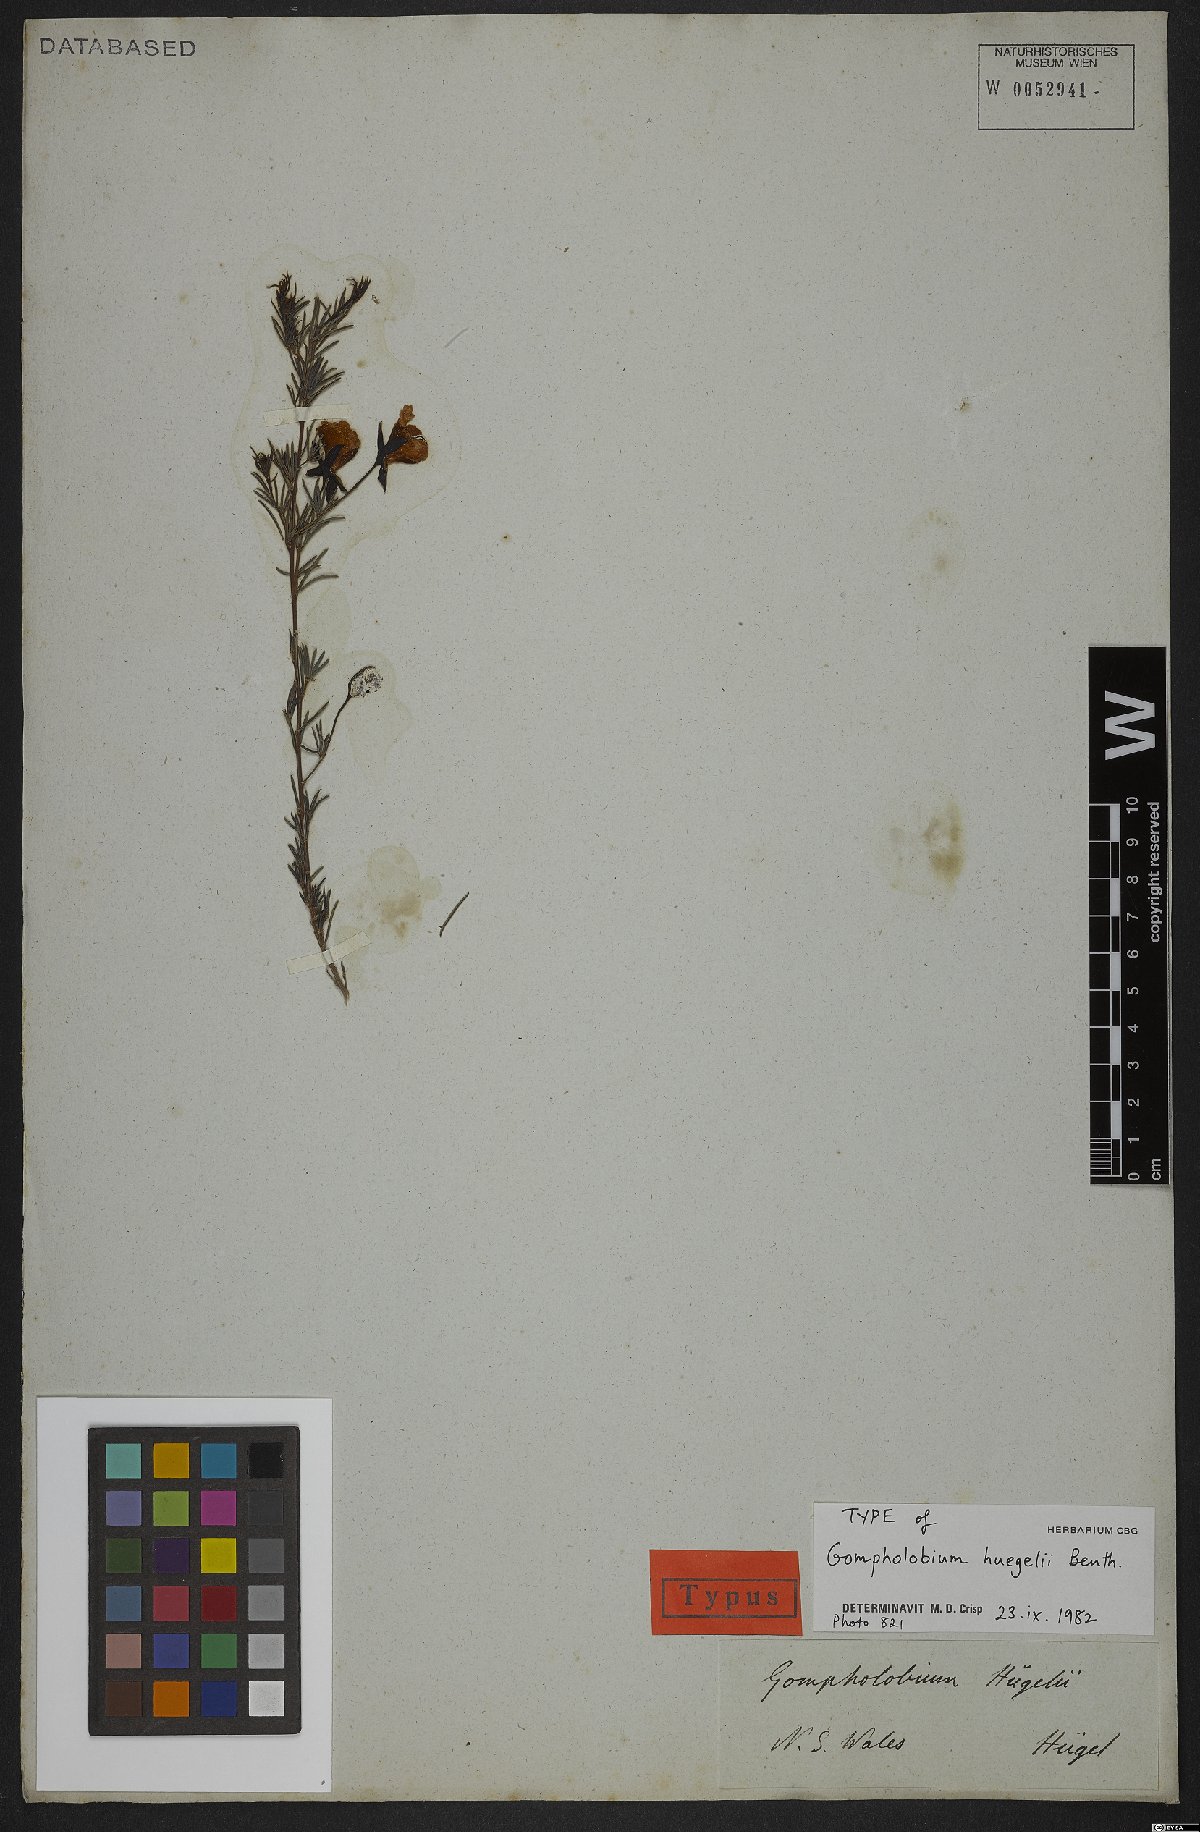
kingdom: Plantae
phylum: Tracheophyta
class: Magnoliopsida
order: Fabales
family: Fabaceae
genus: Gompholobium
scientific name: Gompholobium huegelii
